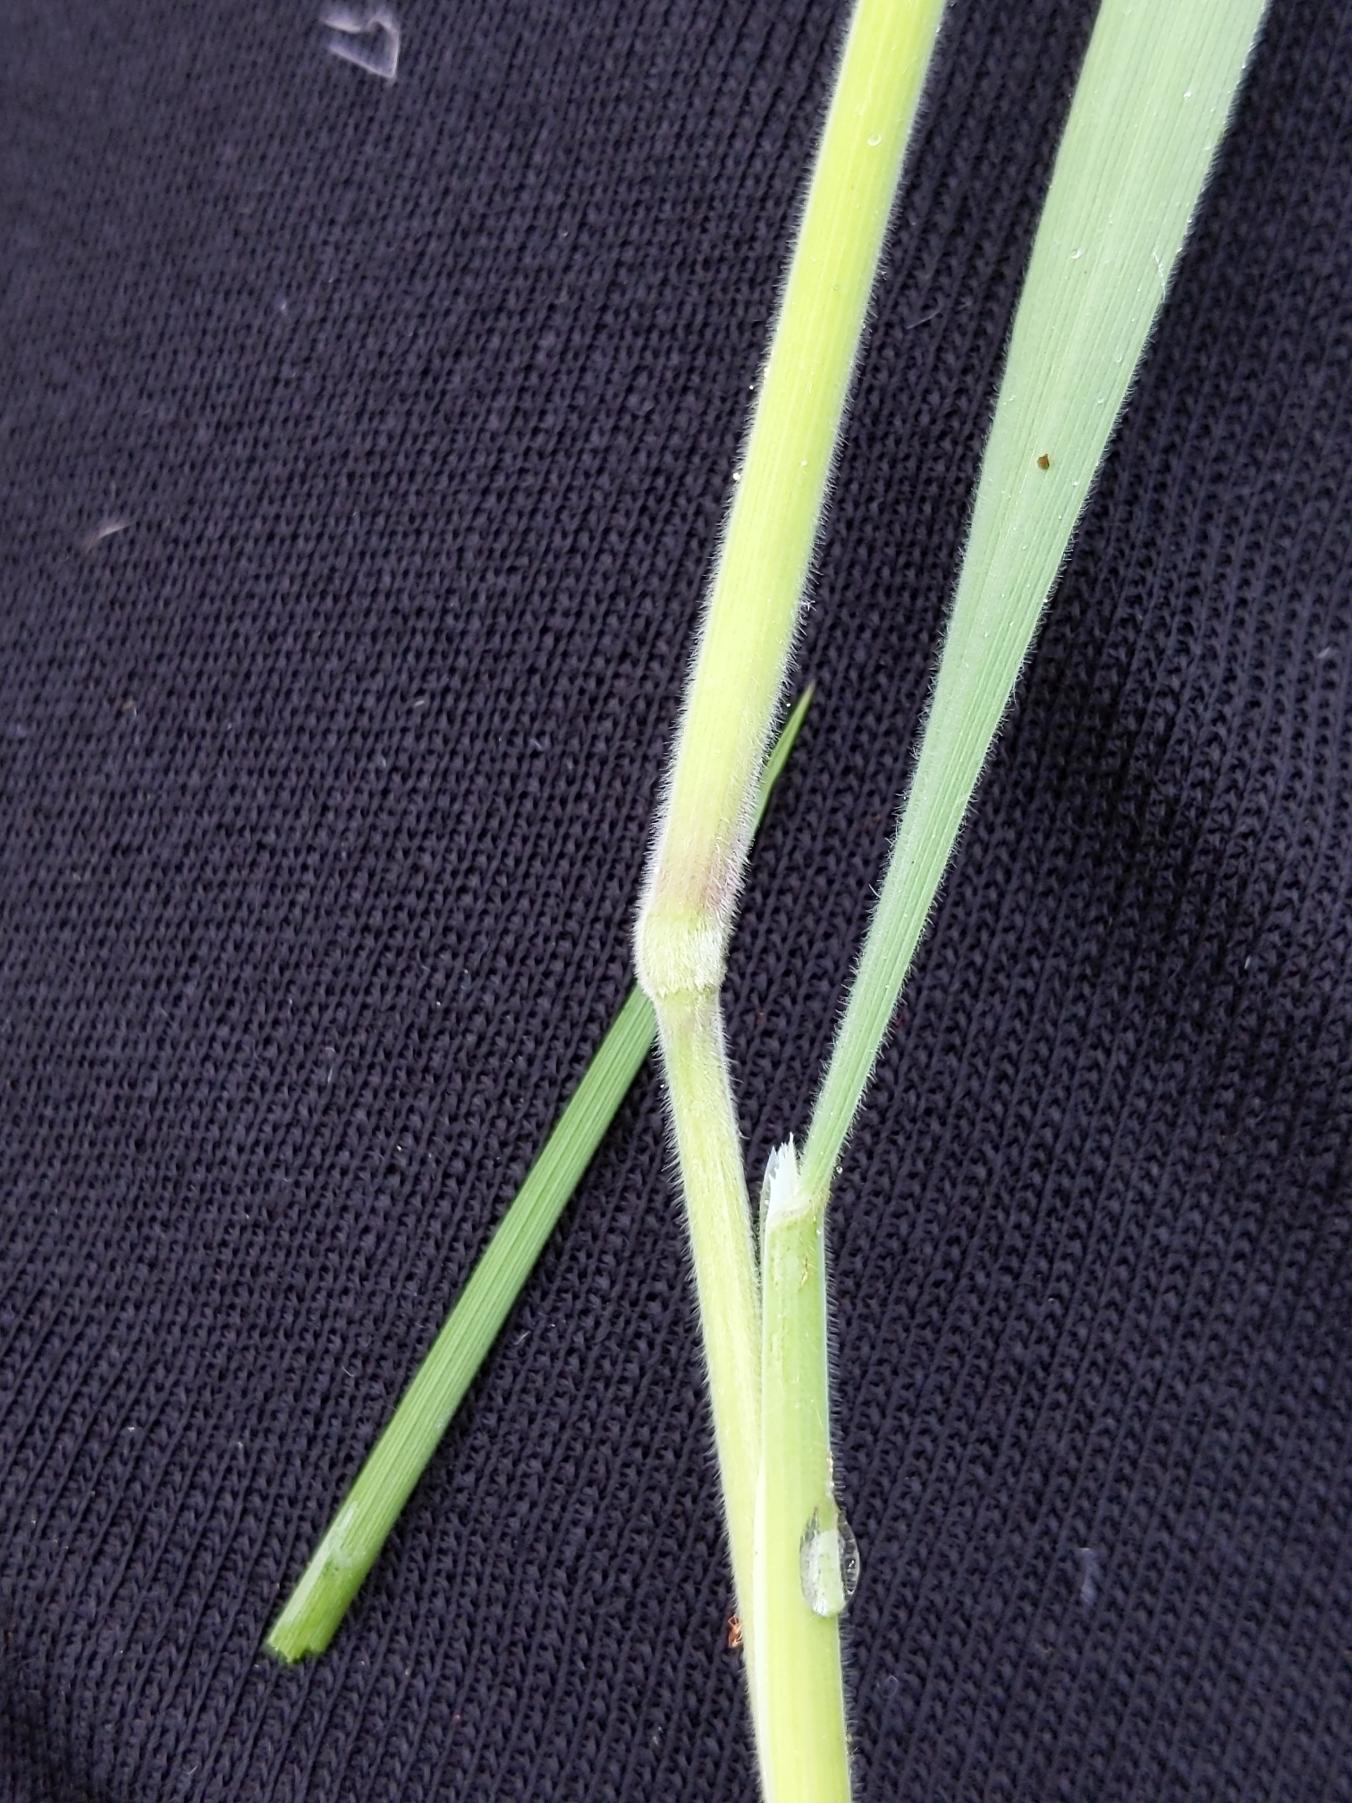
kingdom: Plantae
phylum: Tracheophyta
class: Liliopsida
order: Poales
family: Poaceae
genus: Holcus
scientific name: Holcus lanatus
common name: Fløjlsgræs
